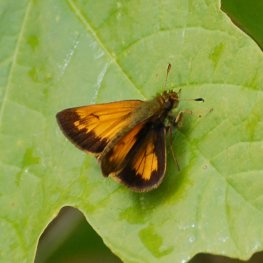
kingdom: Animalia
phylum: Arthropoda
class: Insecta
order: Lepidoptera
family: Hesperiidae
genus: Lon
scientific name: Lon hobomok
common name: Hobomok Skipper
